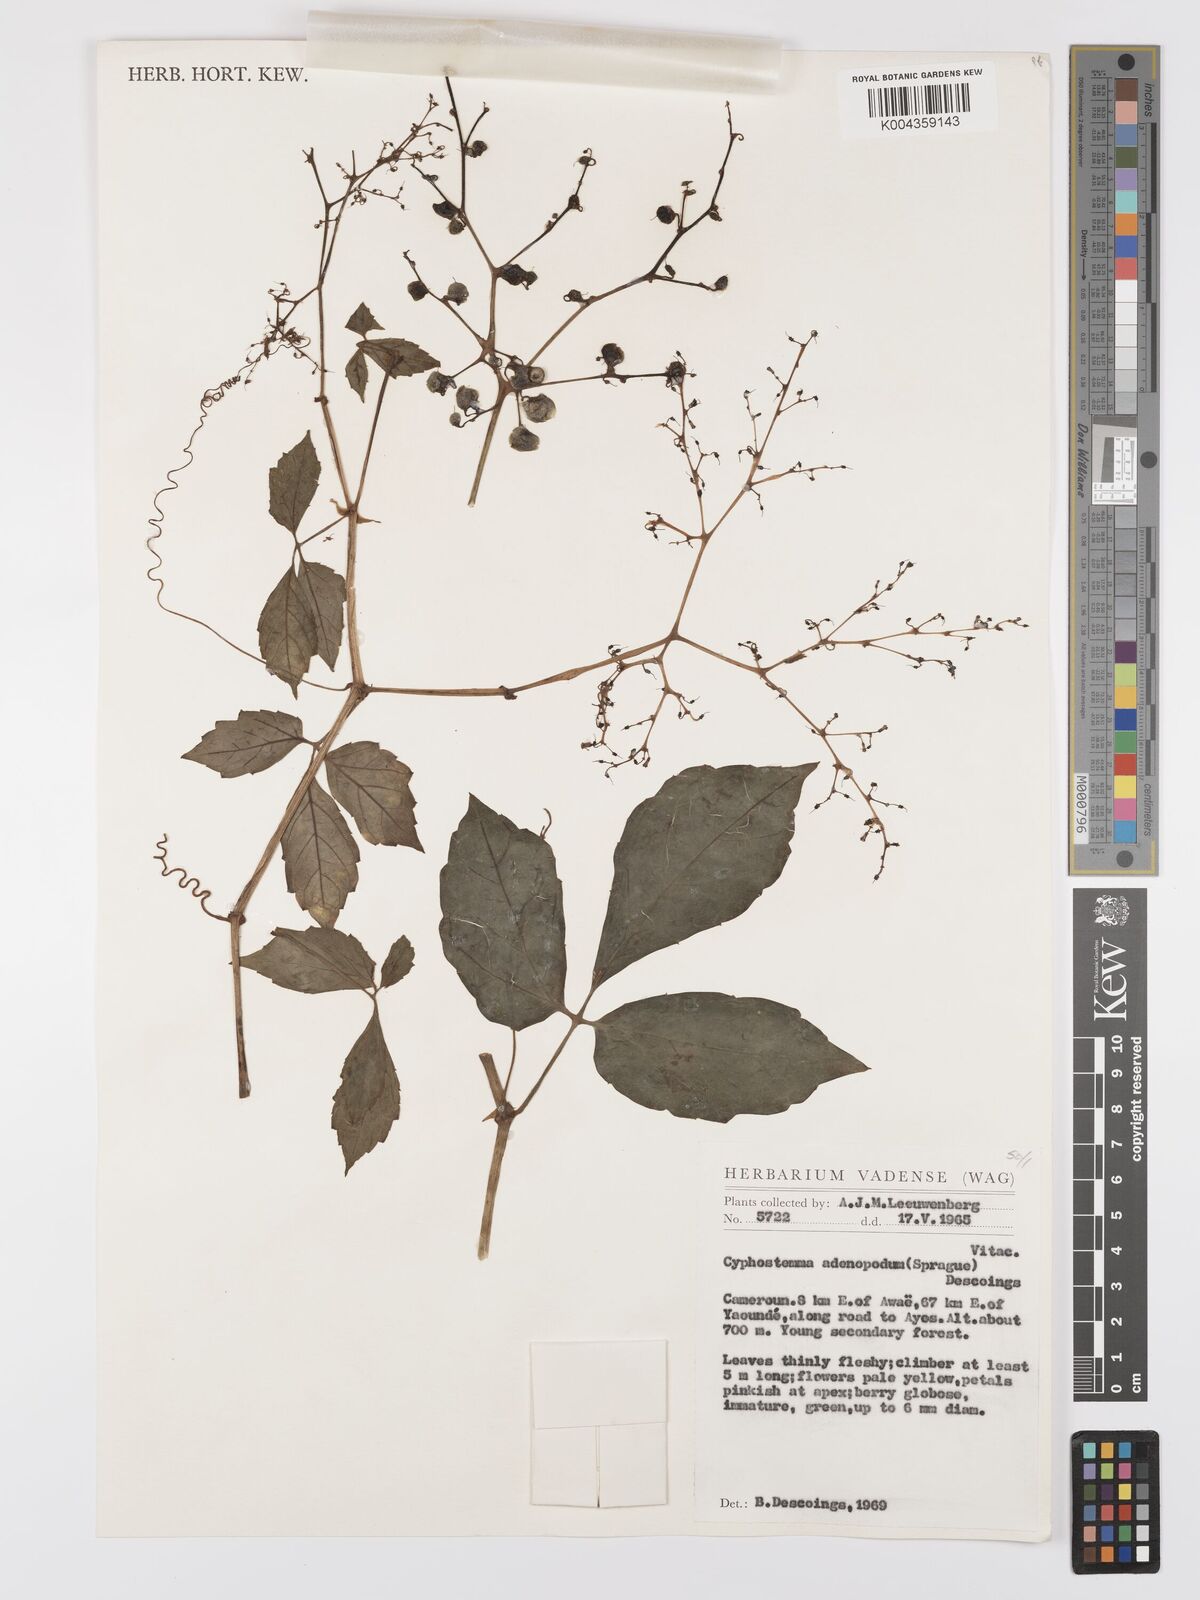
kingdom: Plantae
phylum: Tracheophyta
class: Magnoliopsida
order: Vitales
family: Vitaceae
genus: Cyphostemma
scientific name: Cyphostemma adenopodum
